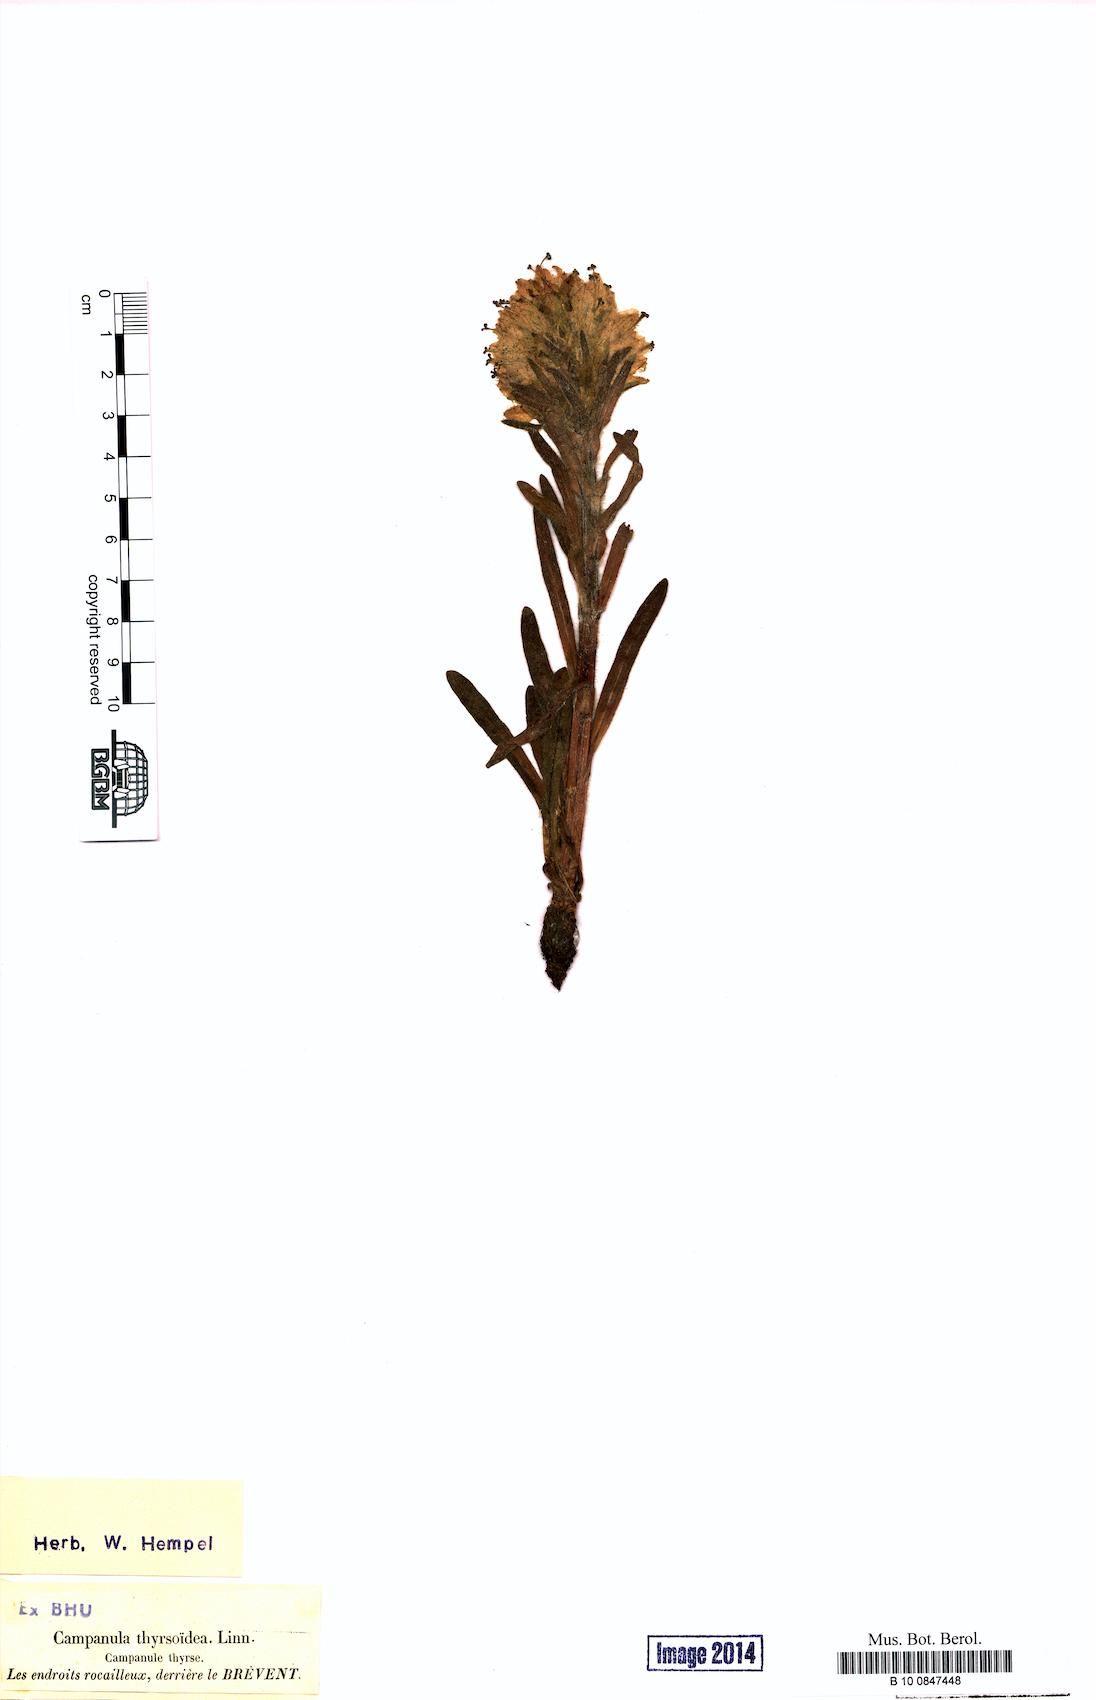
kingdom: Plantae
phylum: Tracheophyta
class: Magnoliopsida
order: Asterales
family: Campanulaceae
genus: Campanula
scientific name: Campanula thyrsoides
